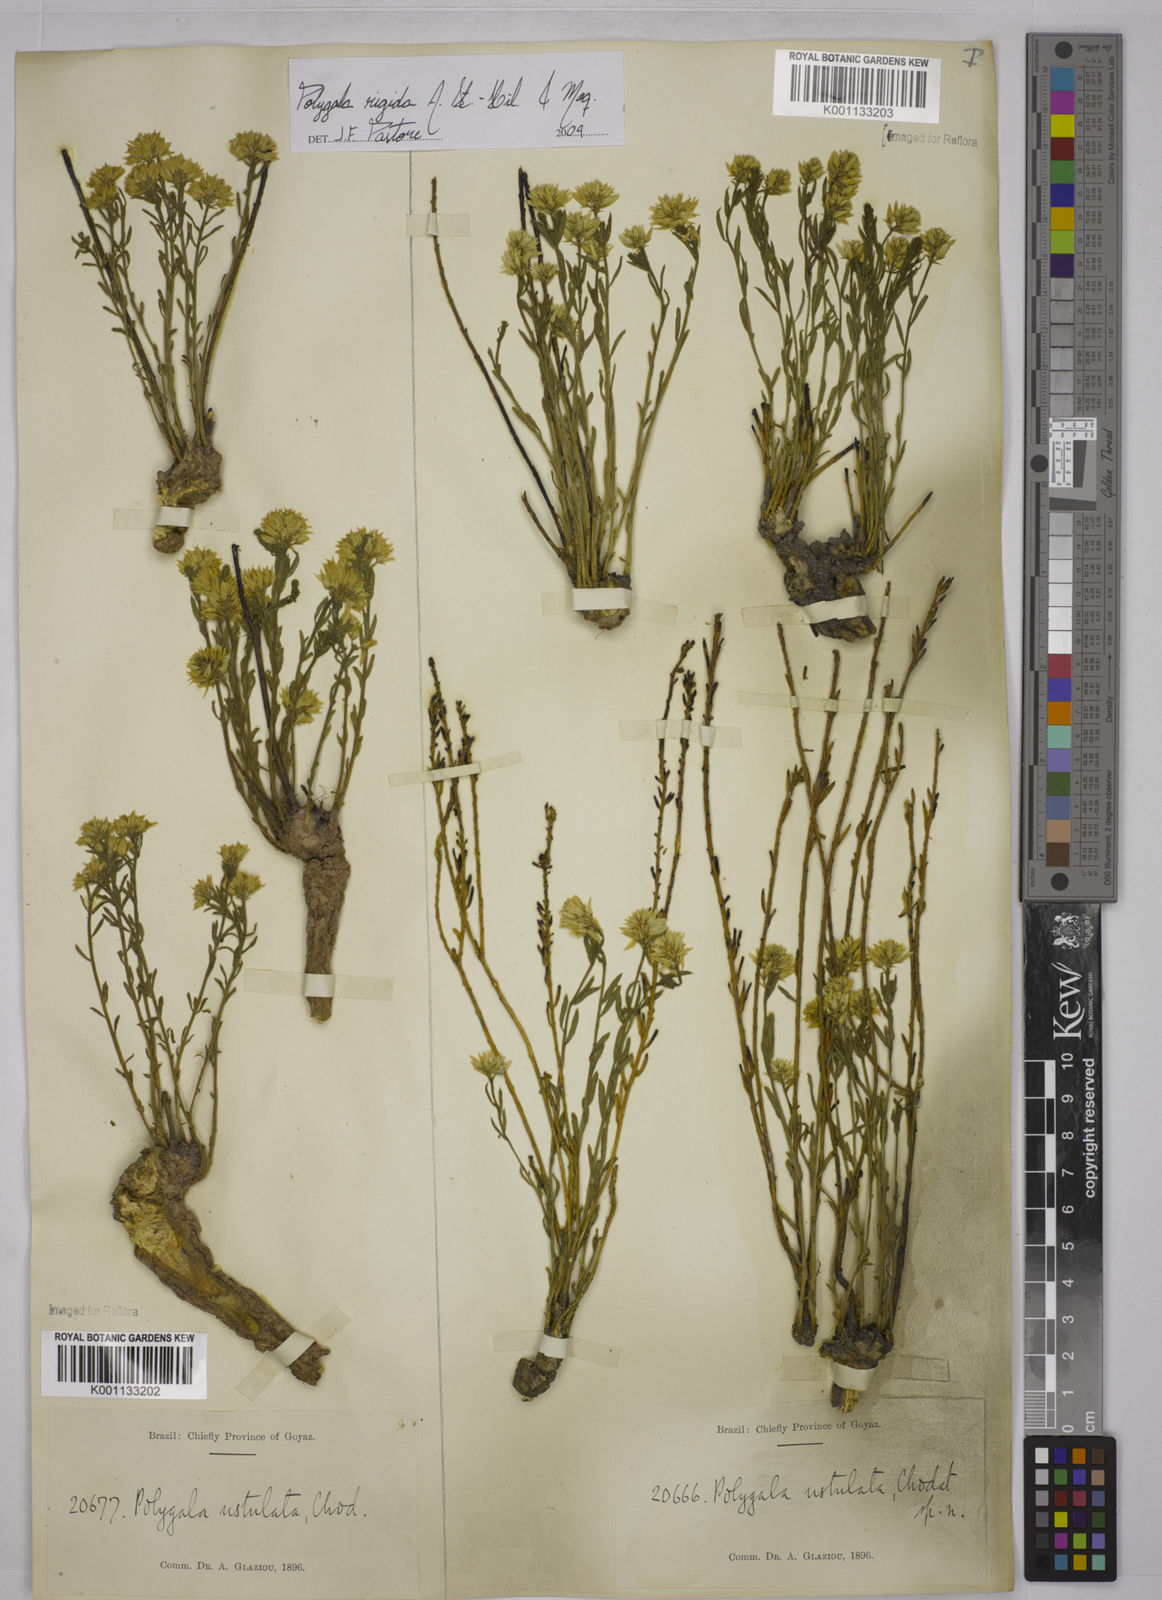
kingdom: Plantae
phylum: Tracheophyta
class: Magnoliopsida
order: Fabales
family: Polygalaceae
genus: Polygala
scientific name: Polygala rigida
